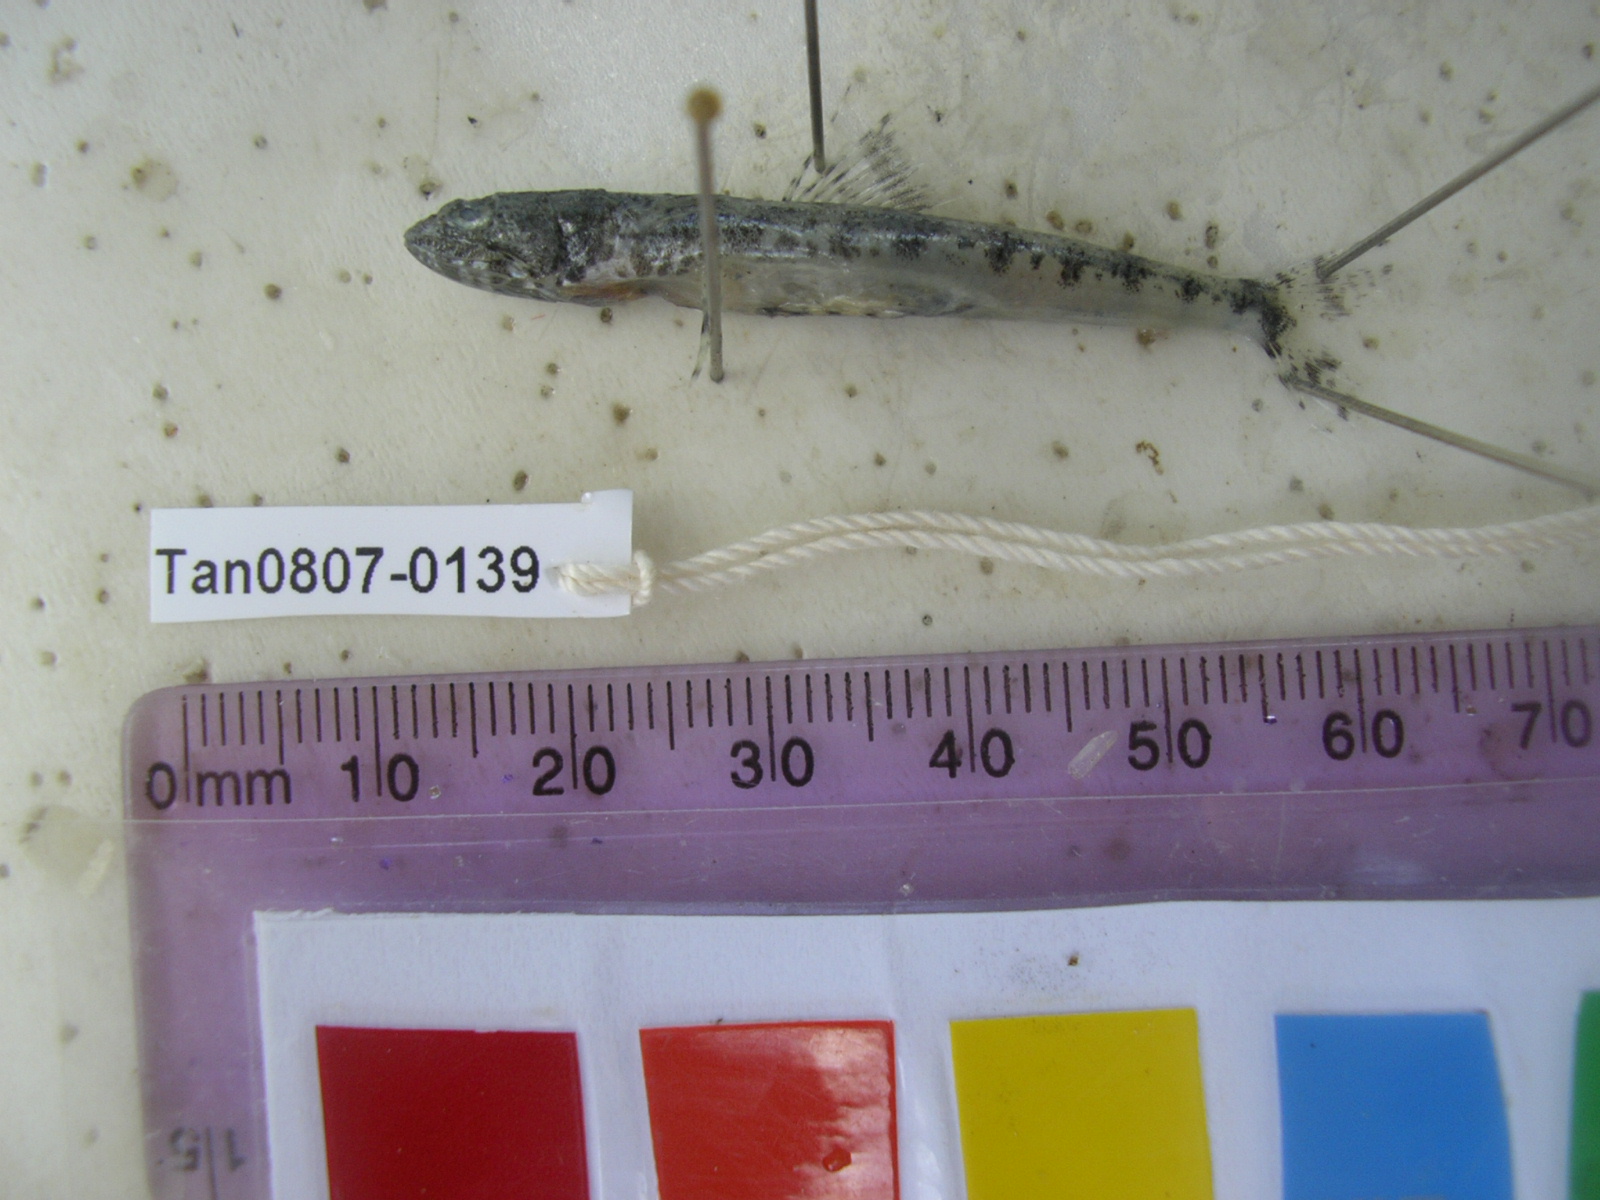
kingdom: Animalia
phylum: Chordata
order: Aulopiformes
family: Synodontidae
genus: Saurida
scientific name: Saurida gracilis
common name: Slender lizardfish
